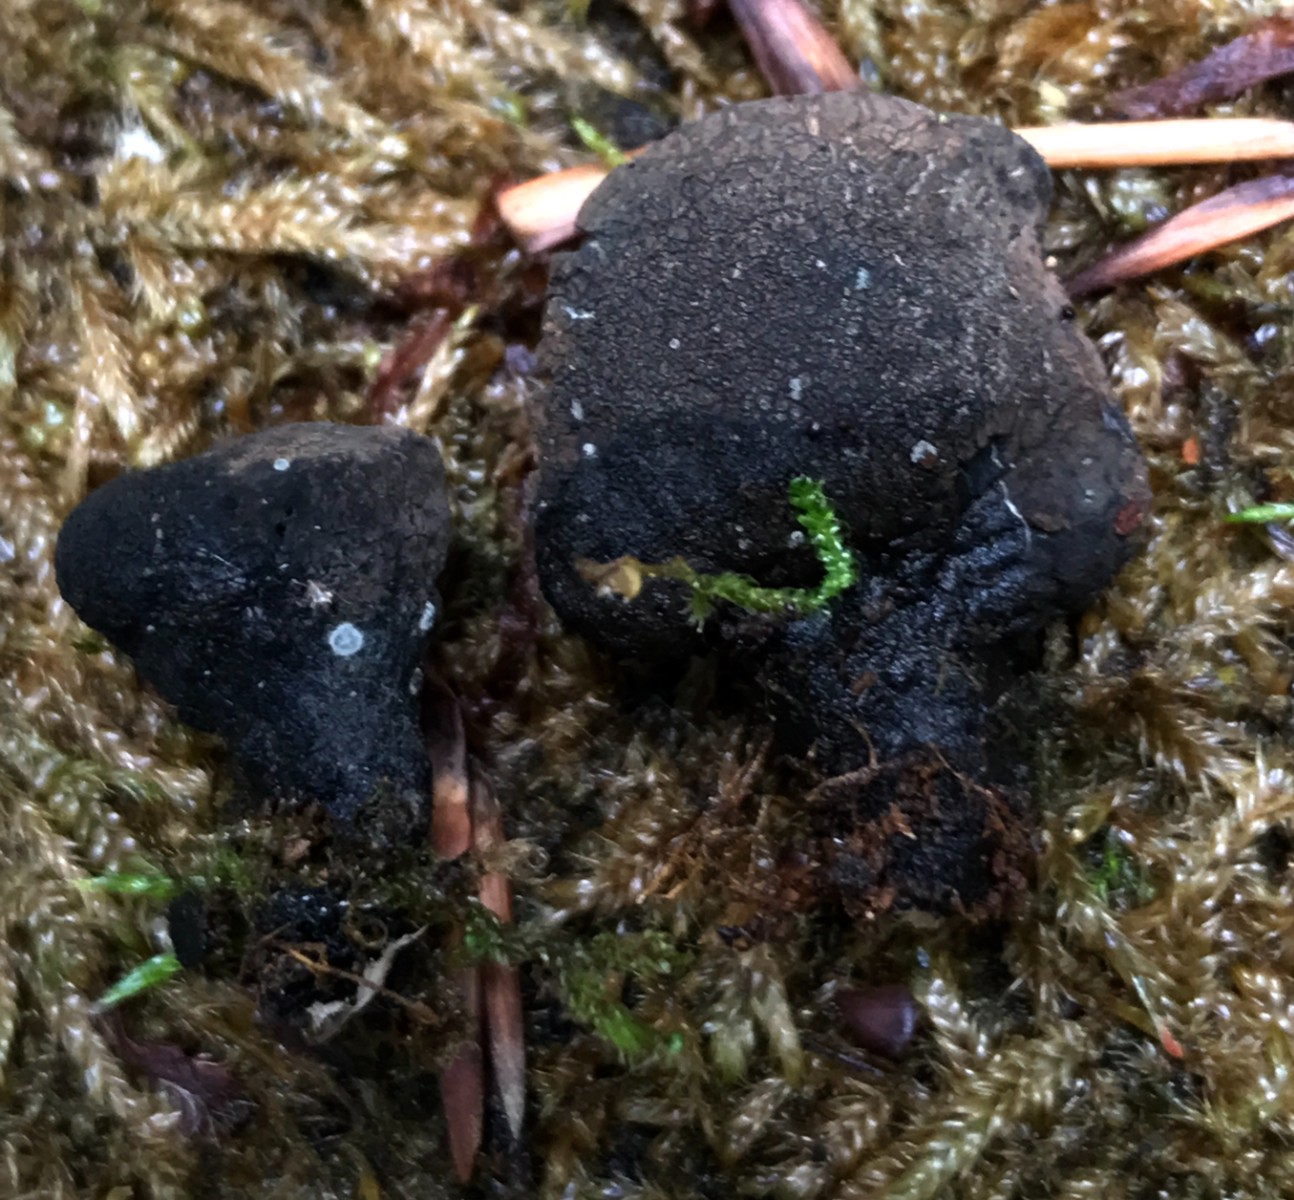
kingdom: Fungi
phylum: Ascomycota
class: Sordariomycetes
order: Xylariales
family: Xylariaceae
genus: Xylaria
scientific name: Xylaria polymorpha
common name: kølle-stødsvamp
